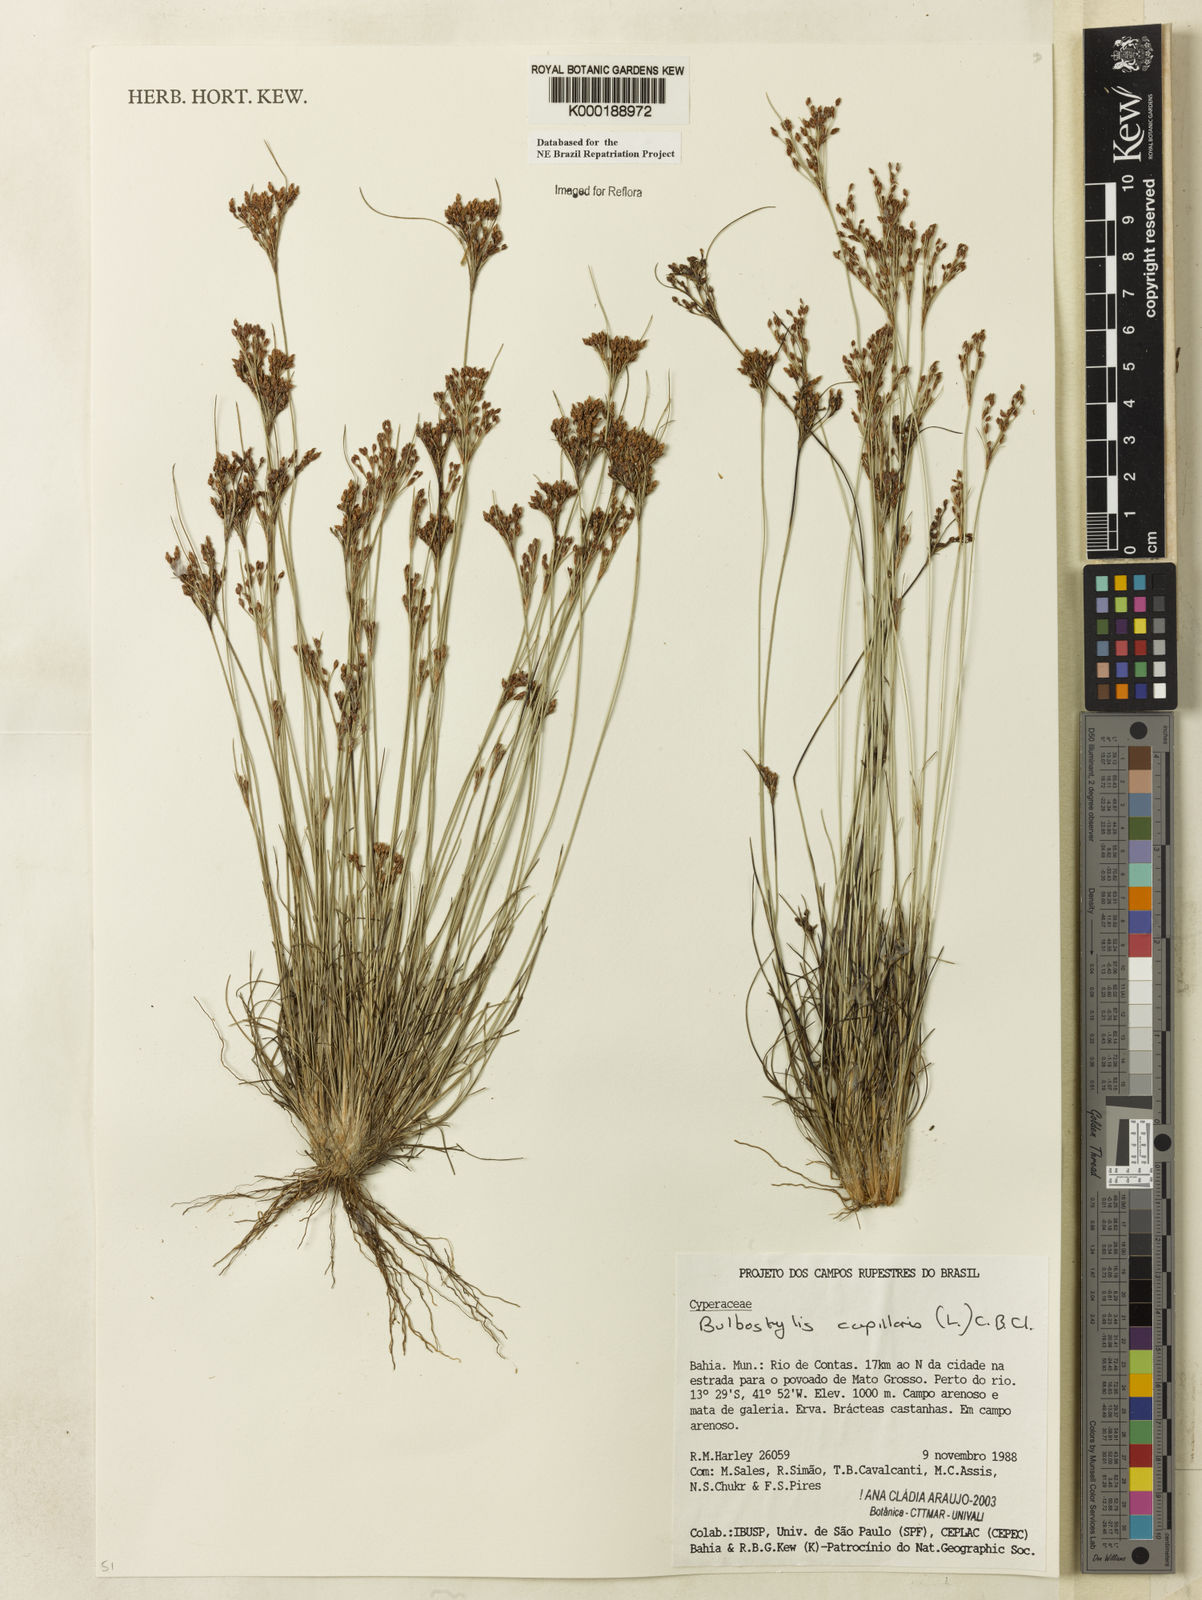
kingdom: Plantae
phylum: Tracheophyta
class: Liliopsida
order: Poales
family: Cyperaceae
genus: Bulbostylis
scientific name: Bulbostylis capillaris
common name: Densetuft hairsedge
